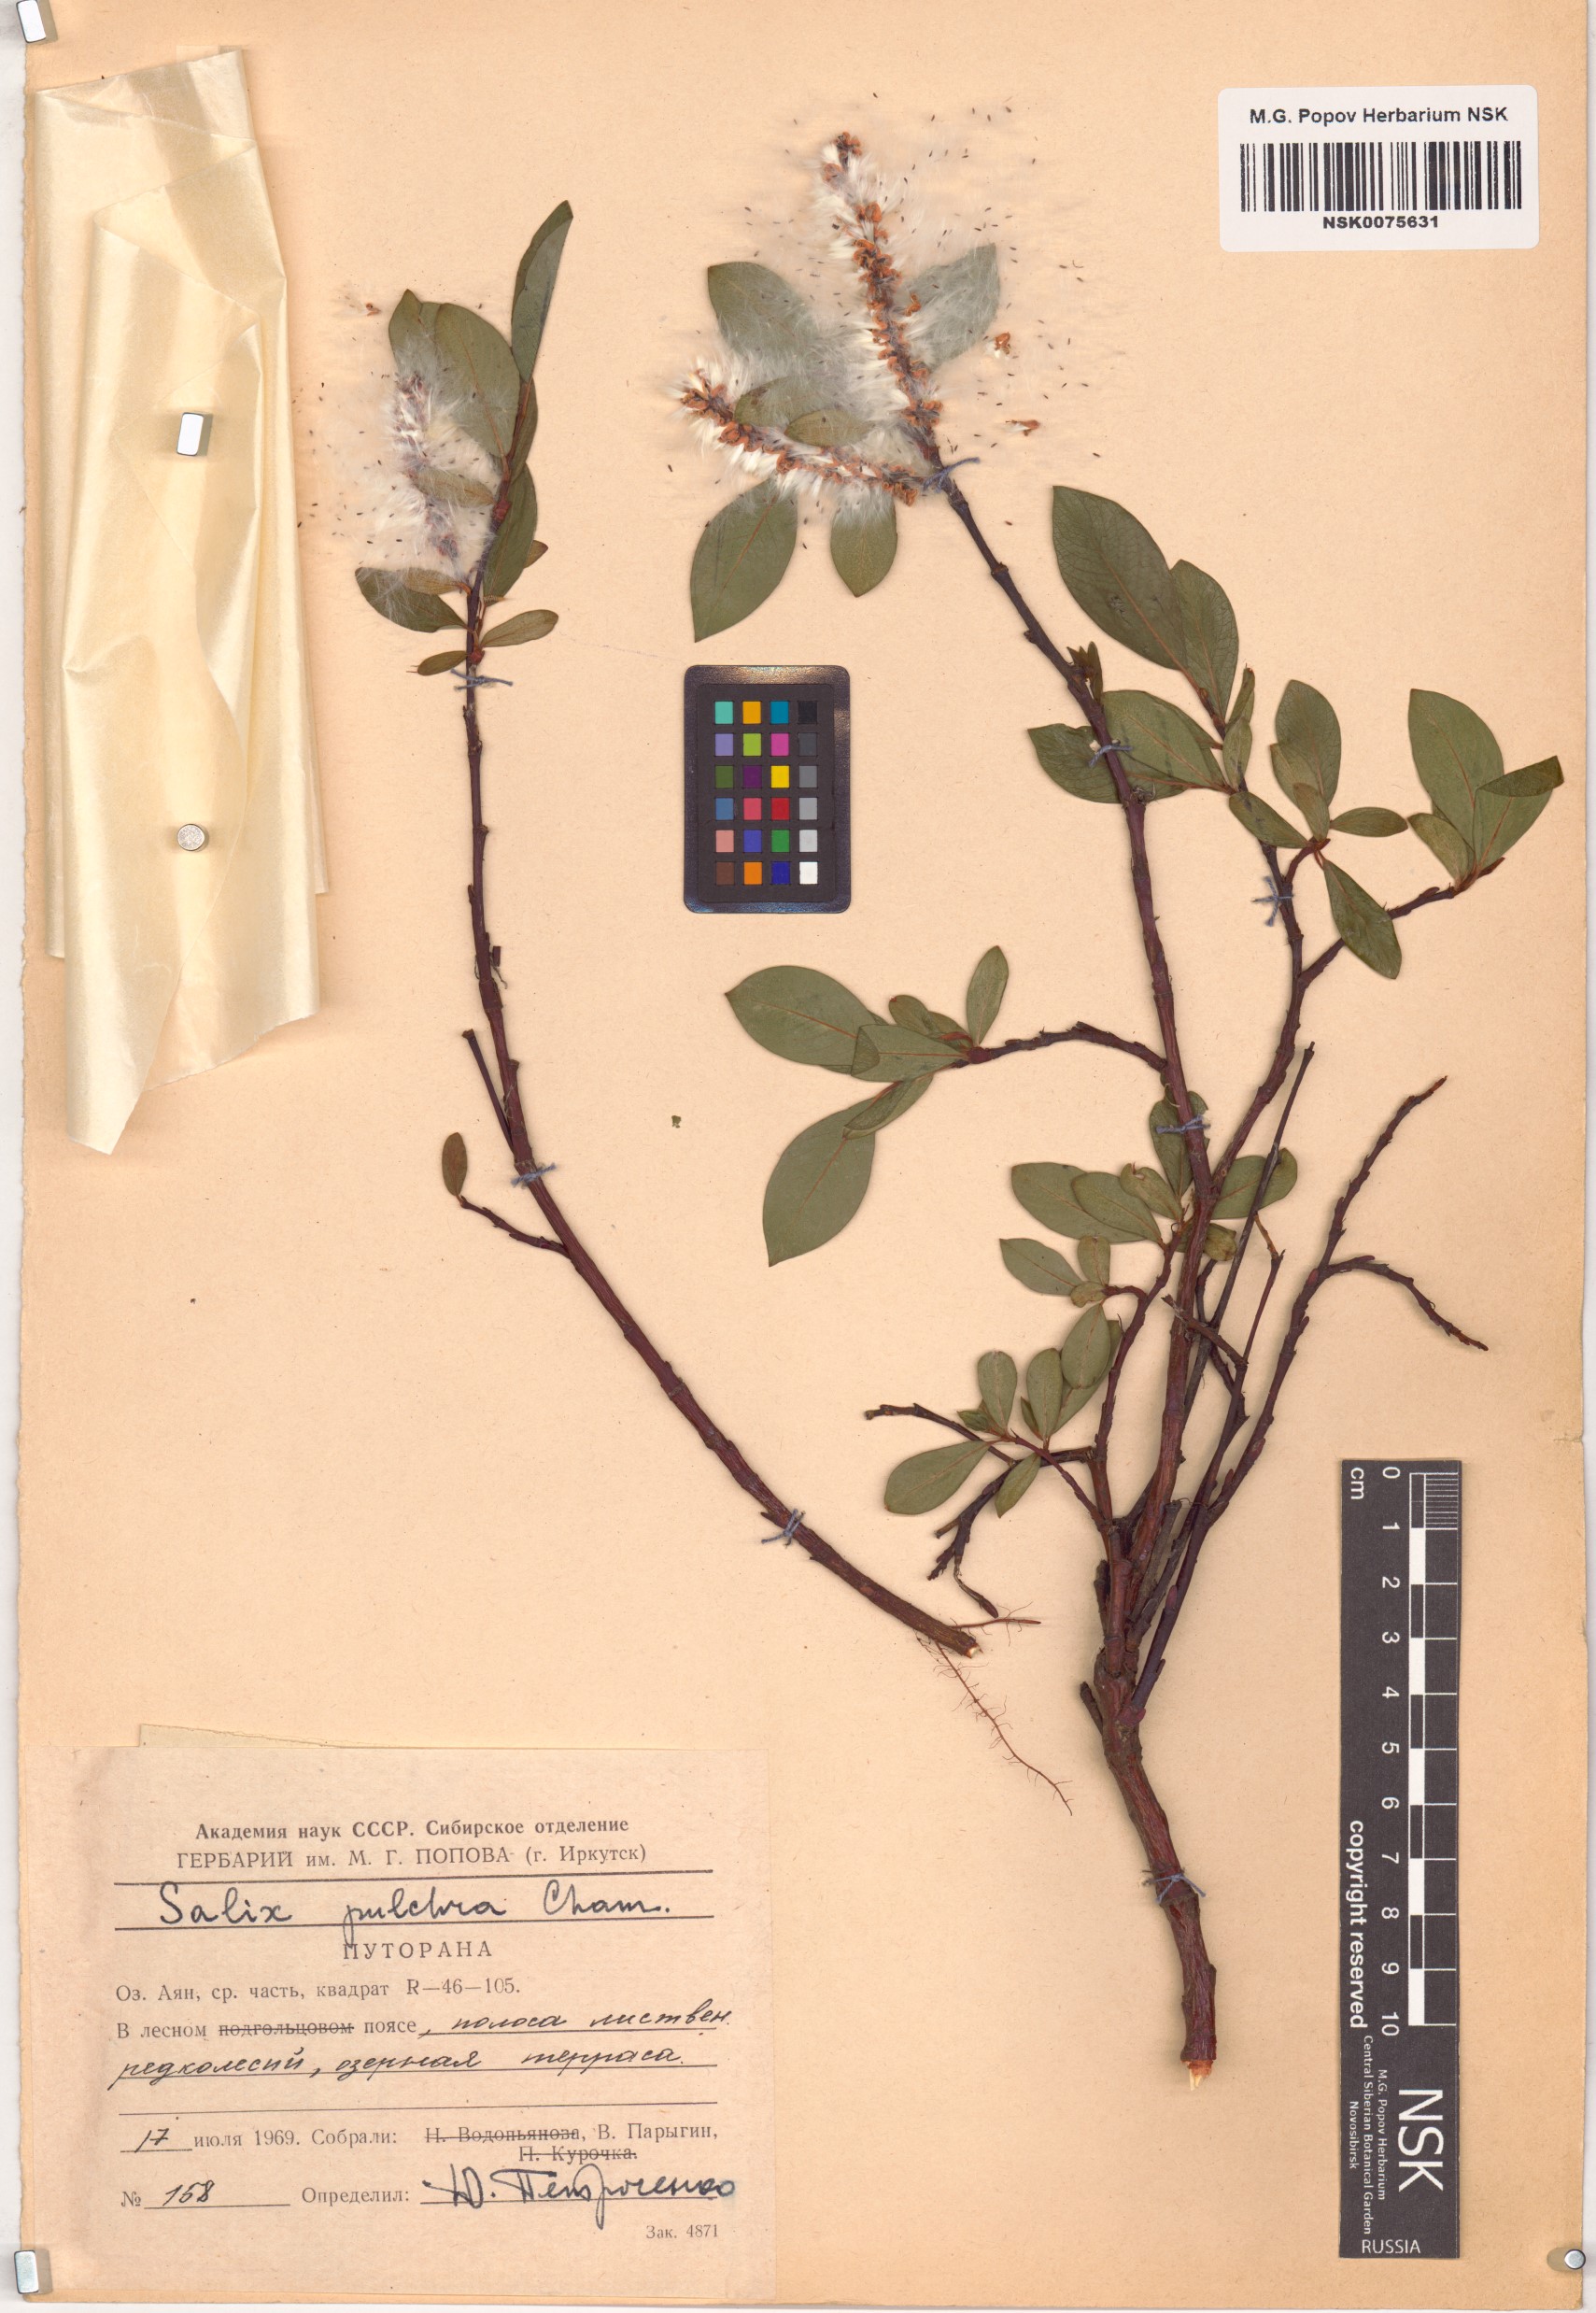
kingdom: Plantae
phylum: Tracheophyta
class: Magnoliopsida
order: Malpighiales
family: Salicaceae
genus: Salix
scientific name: Salix pulchra
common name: Diamond-leaved willow
